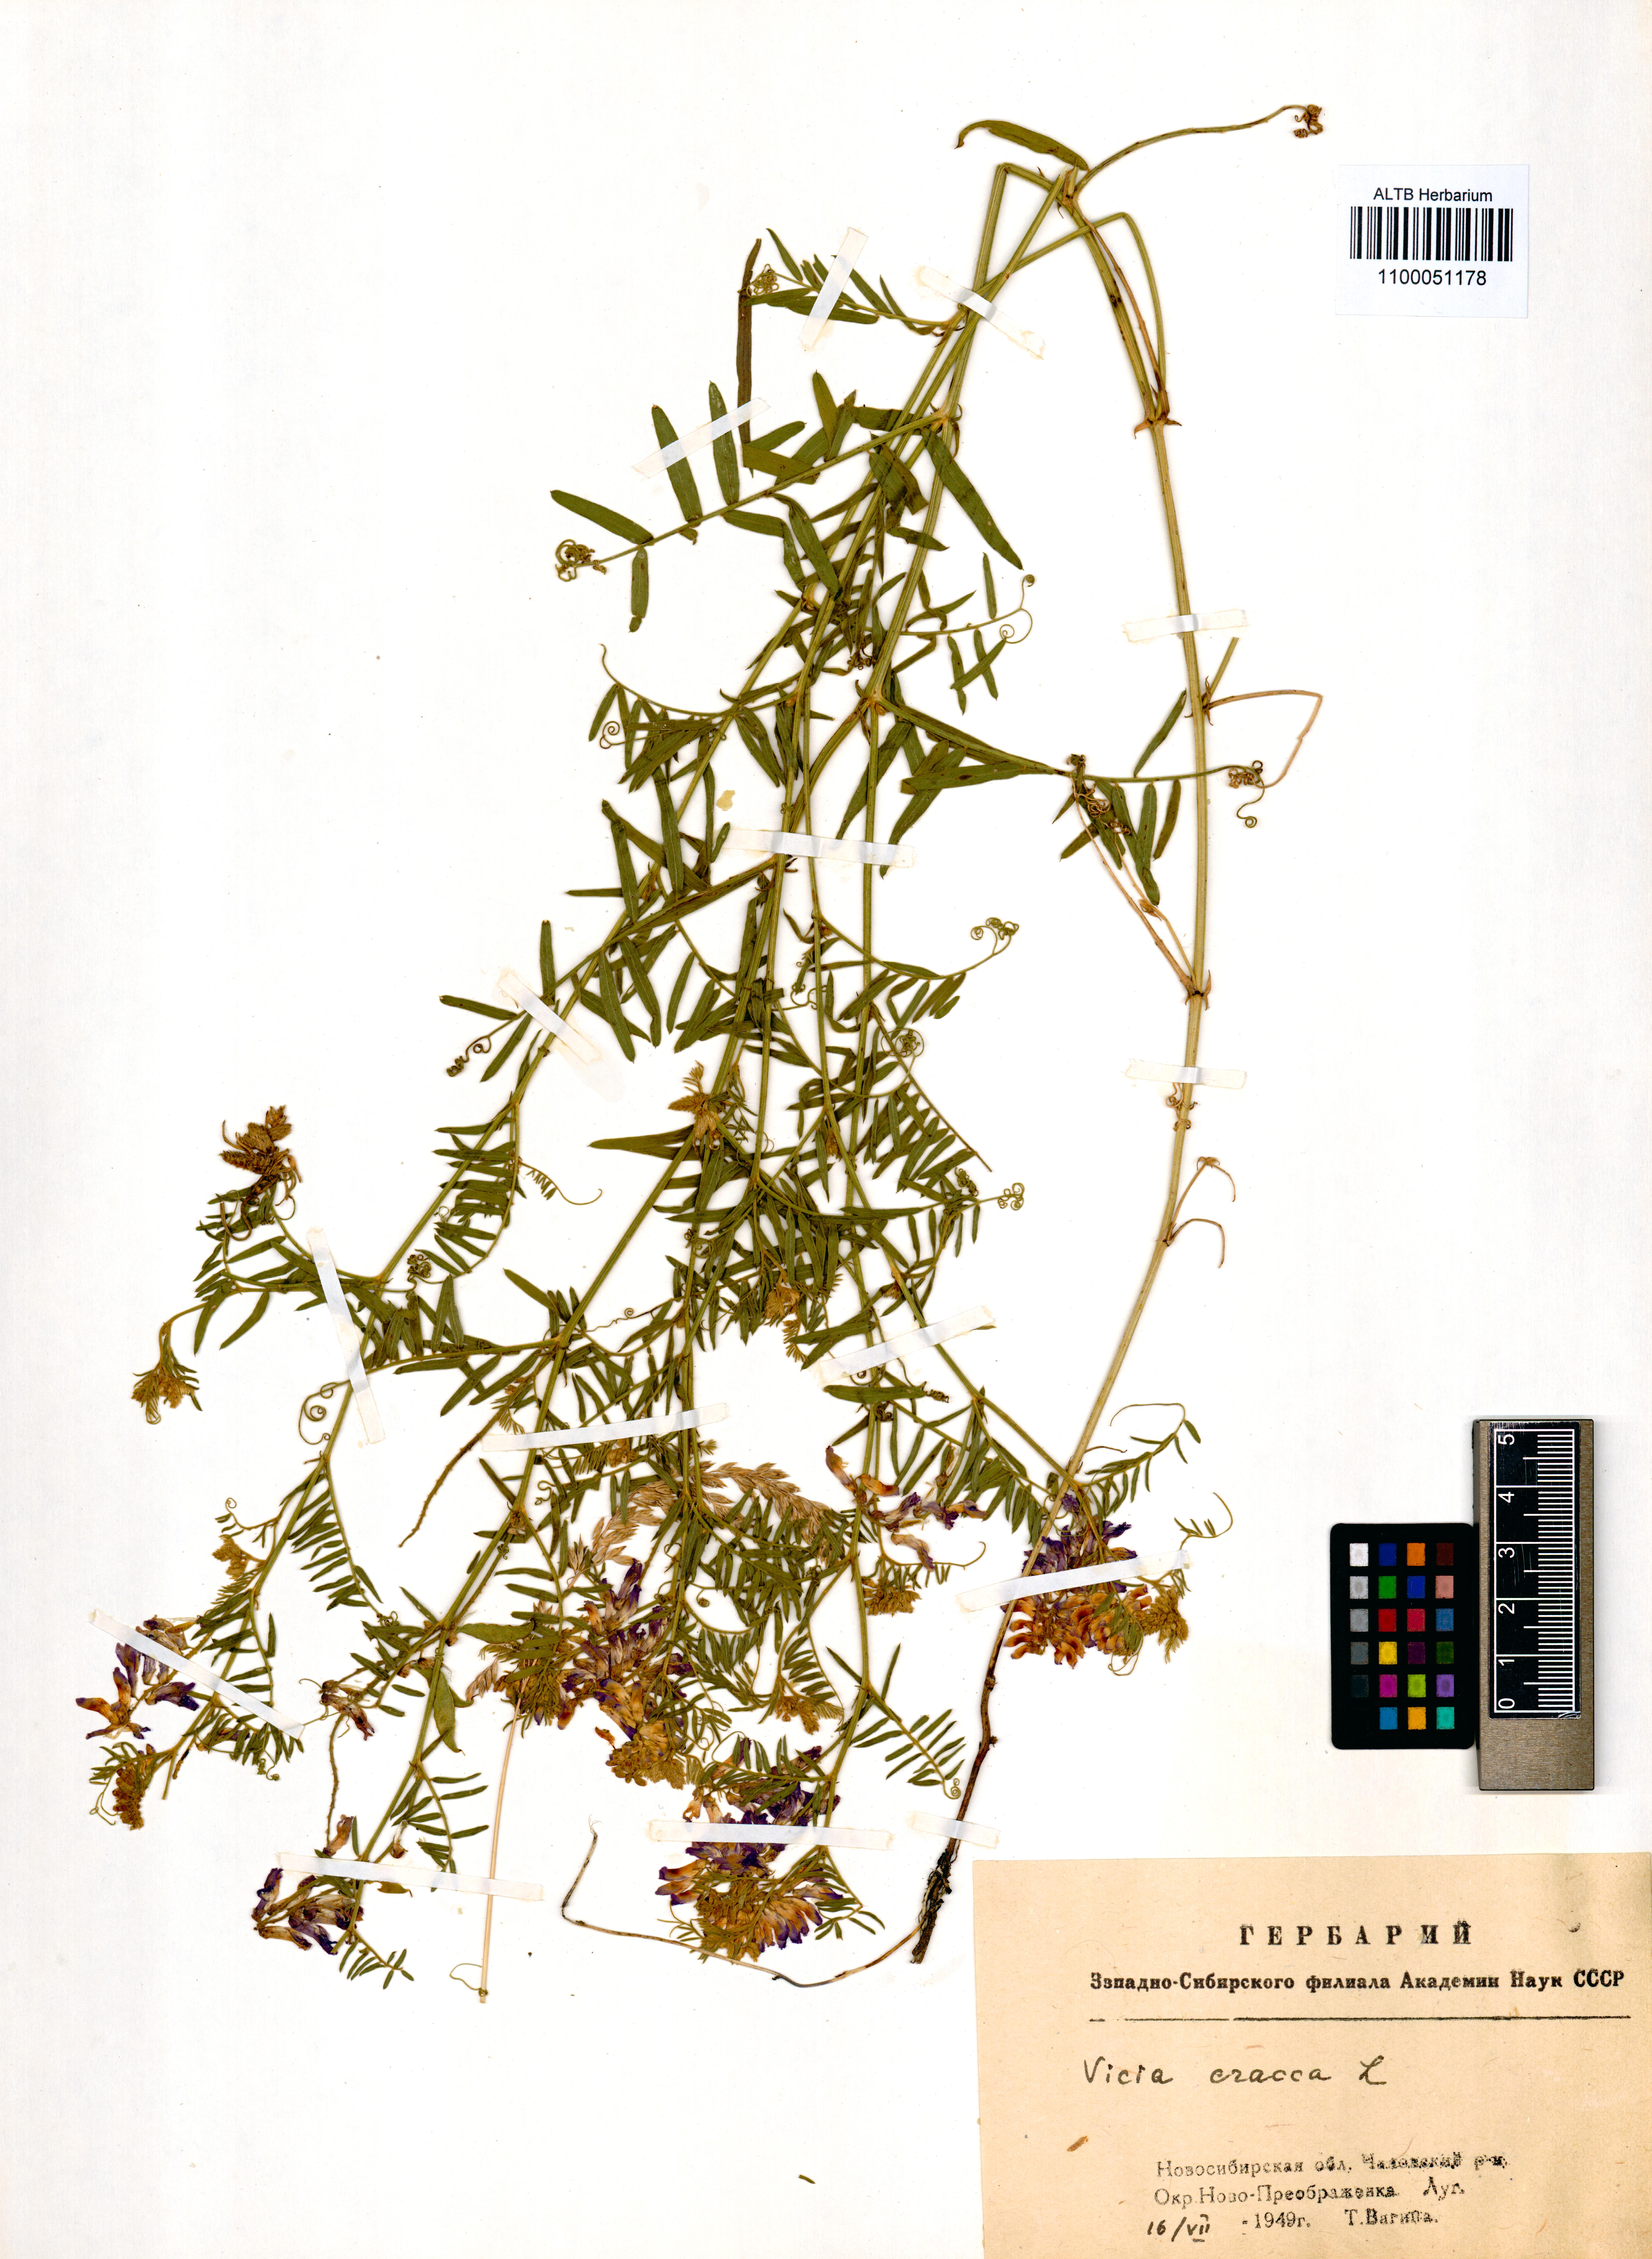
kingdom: Plantae
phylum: Tracheophyta
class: Magnoliopsida
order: Fabales
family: Fabaceae
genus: Vicia
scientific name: Vicia cracca
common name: Bird vetch
